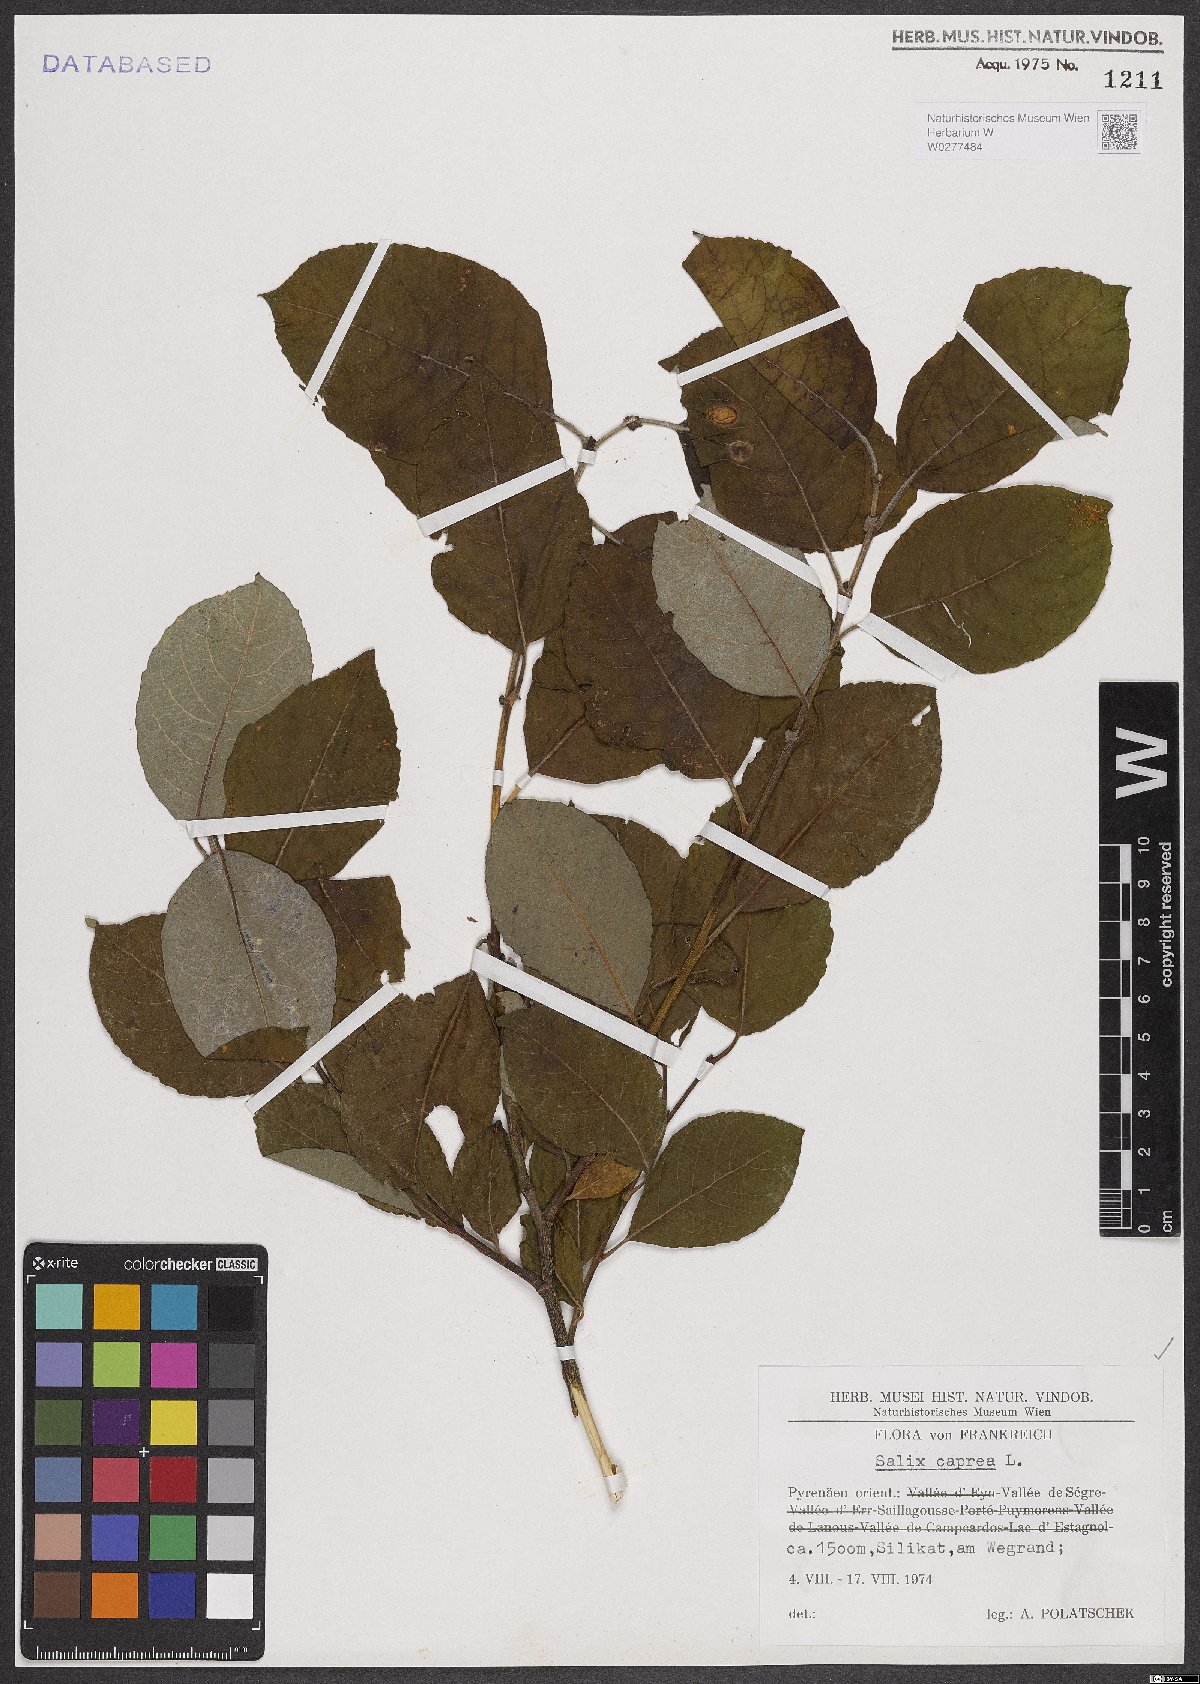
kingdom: Plantae
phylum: Tracheophyta
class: Magnoliopsida
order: Malpighiales
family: Salicaceae
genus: Salix
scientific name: Salix caprea
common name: Goat willow
